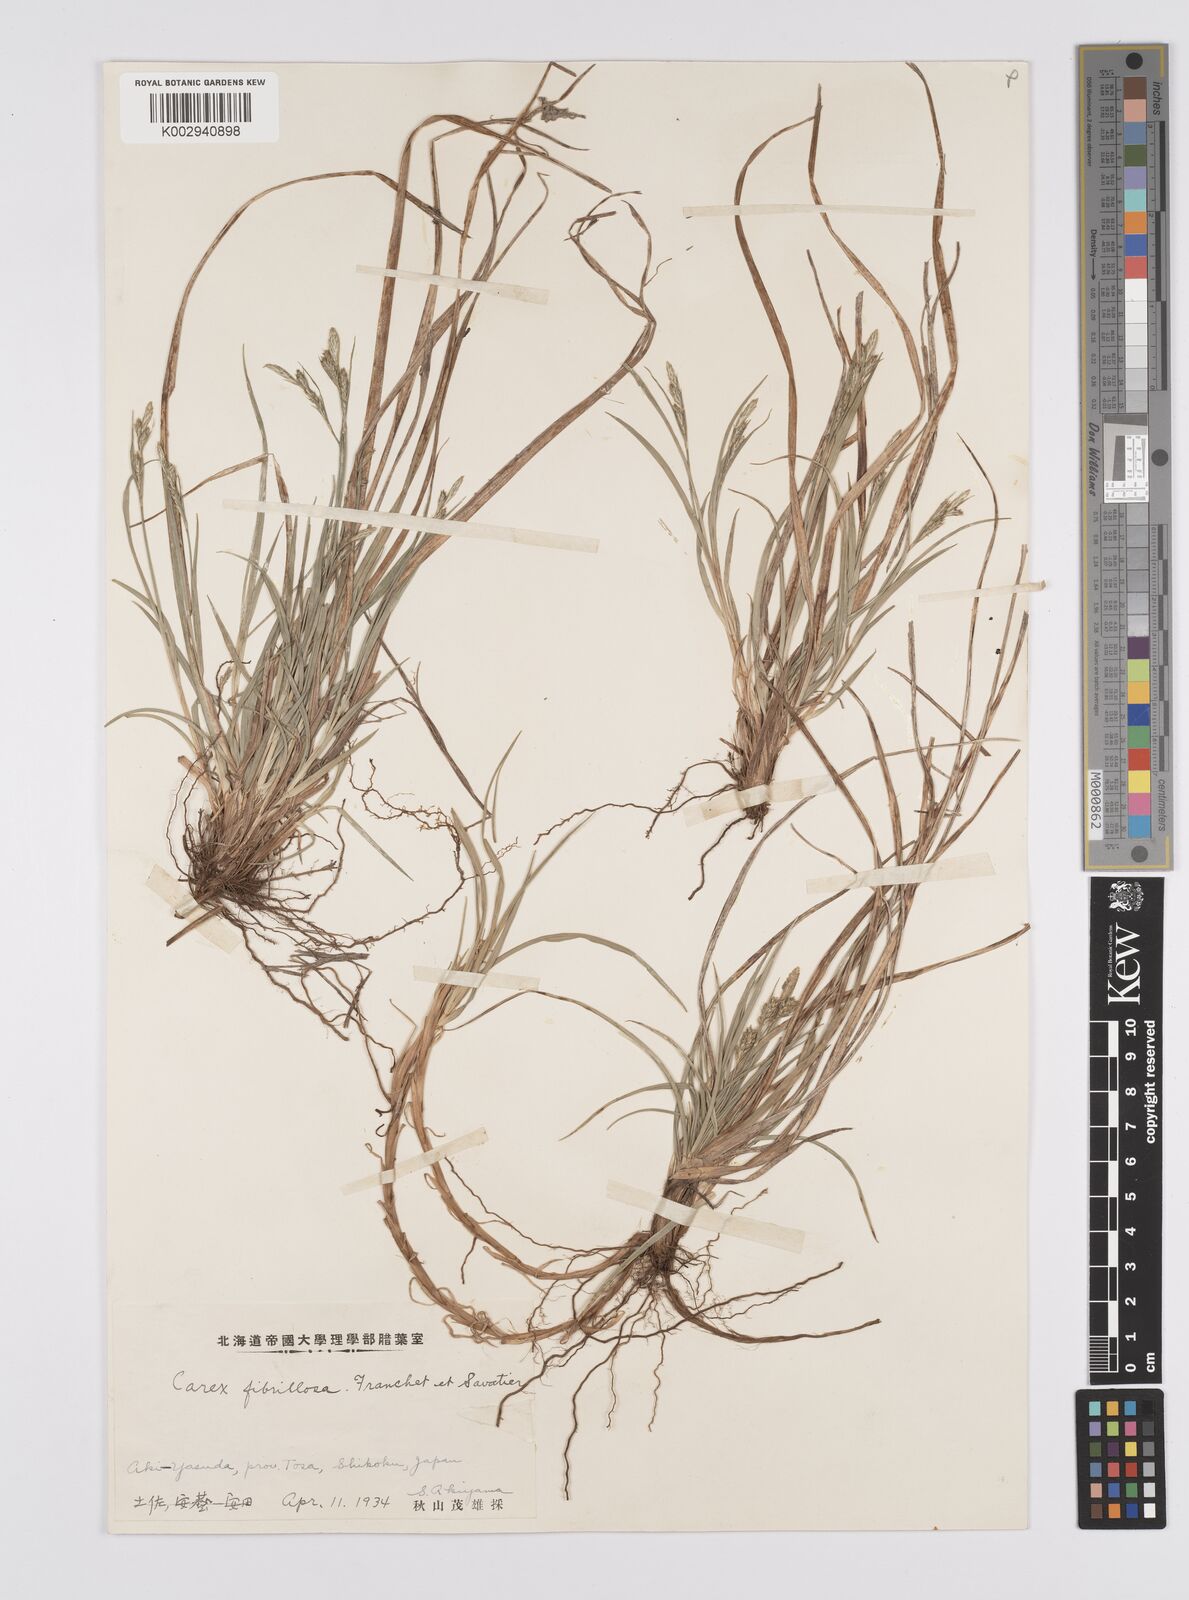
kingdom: Plantae
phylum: Tracheophyta
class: Liliopsida
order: Poales
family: Cyperaceae
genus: Carex
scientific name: Carex breviculmis
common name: Asian shortstem sedge
